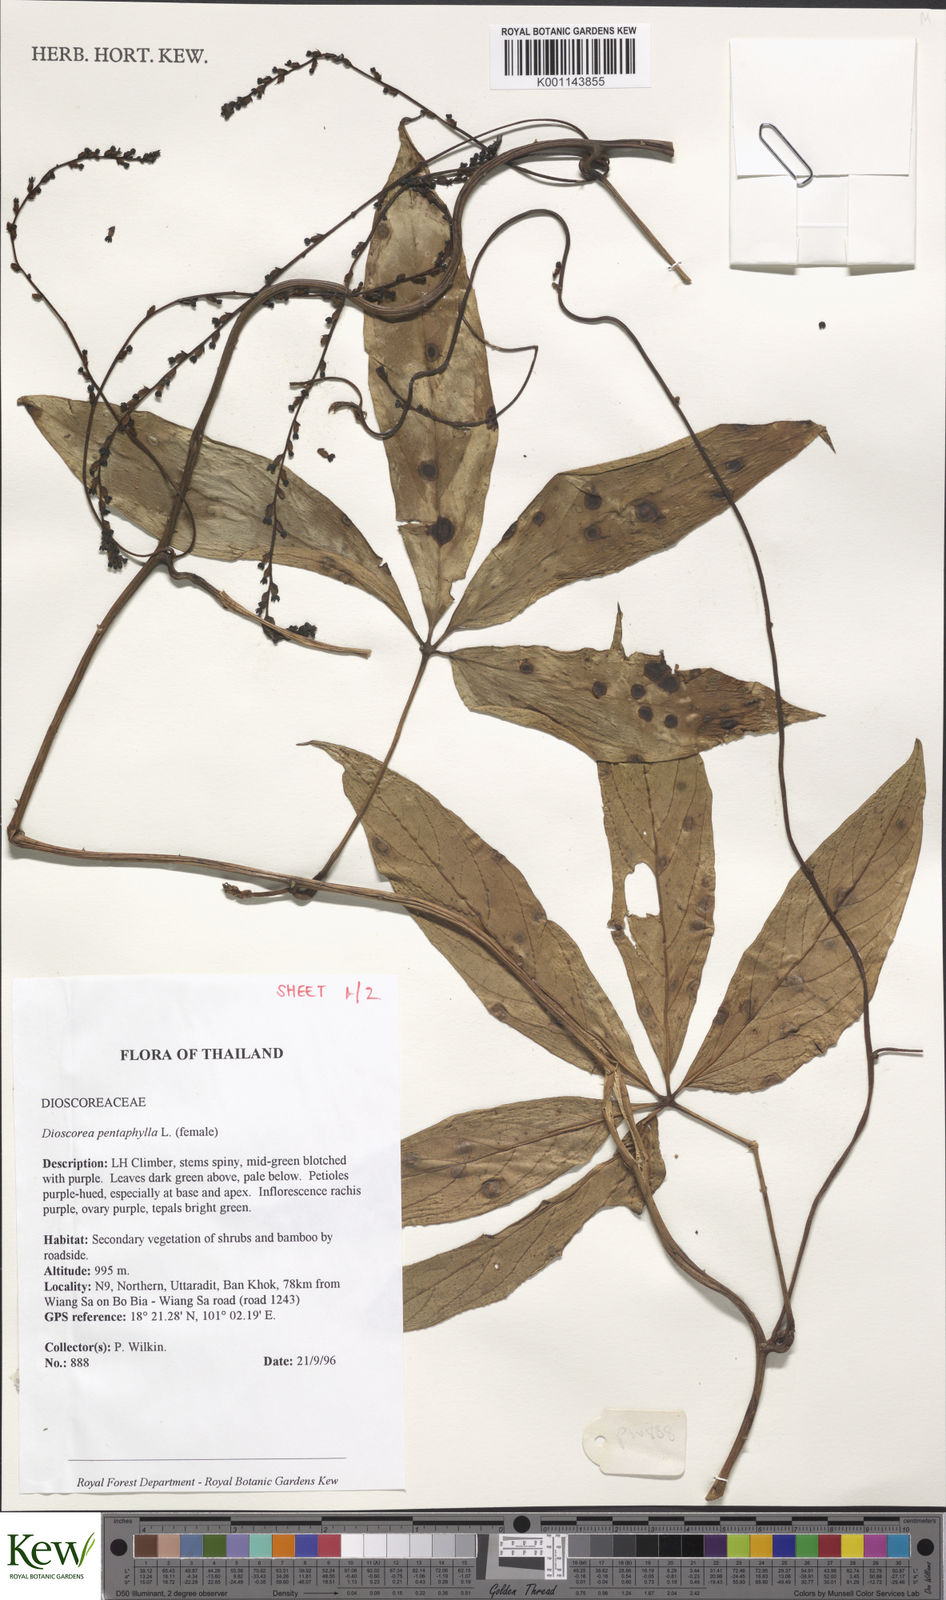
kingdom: Plantae
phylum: Tracheophyta
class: Liliopsida
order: Dioscoreales
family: Dioscoreaceae
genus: Dioscorea
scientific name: Dioscorea pentaphylla
